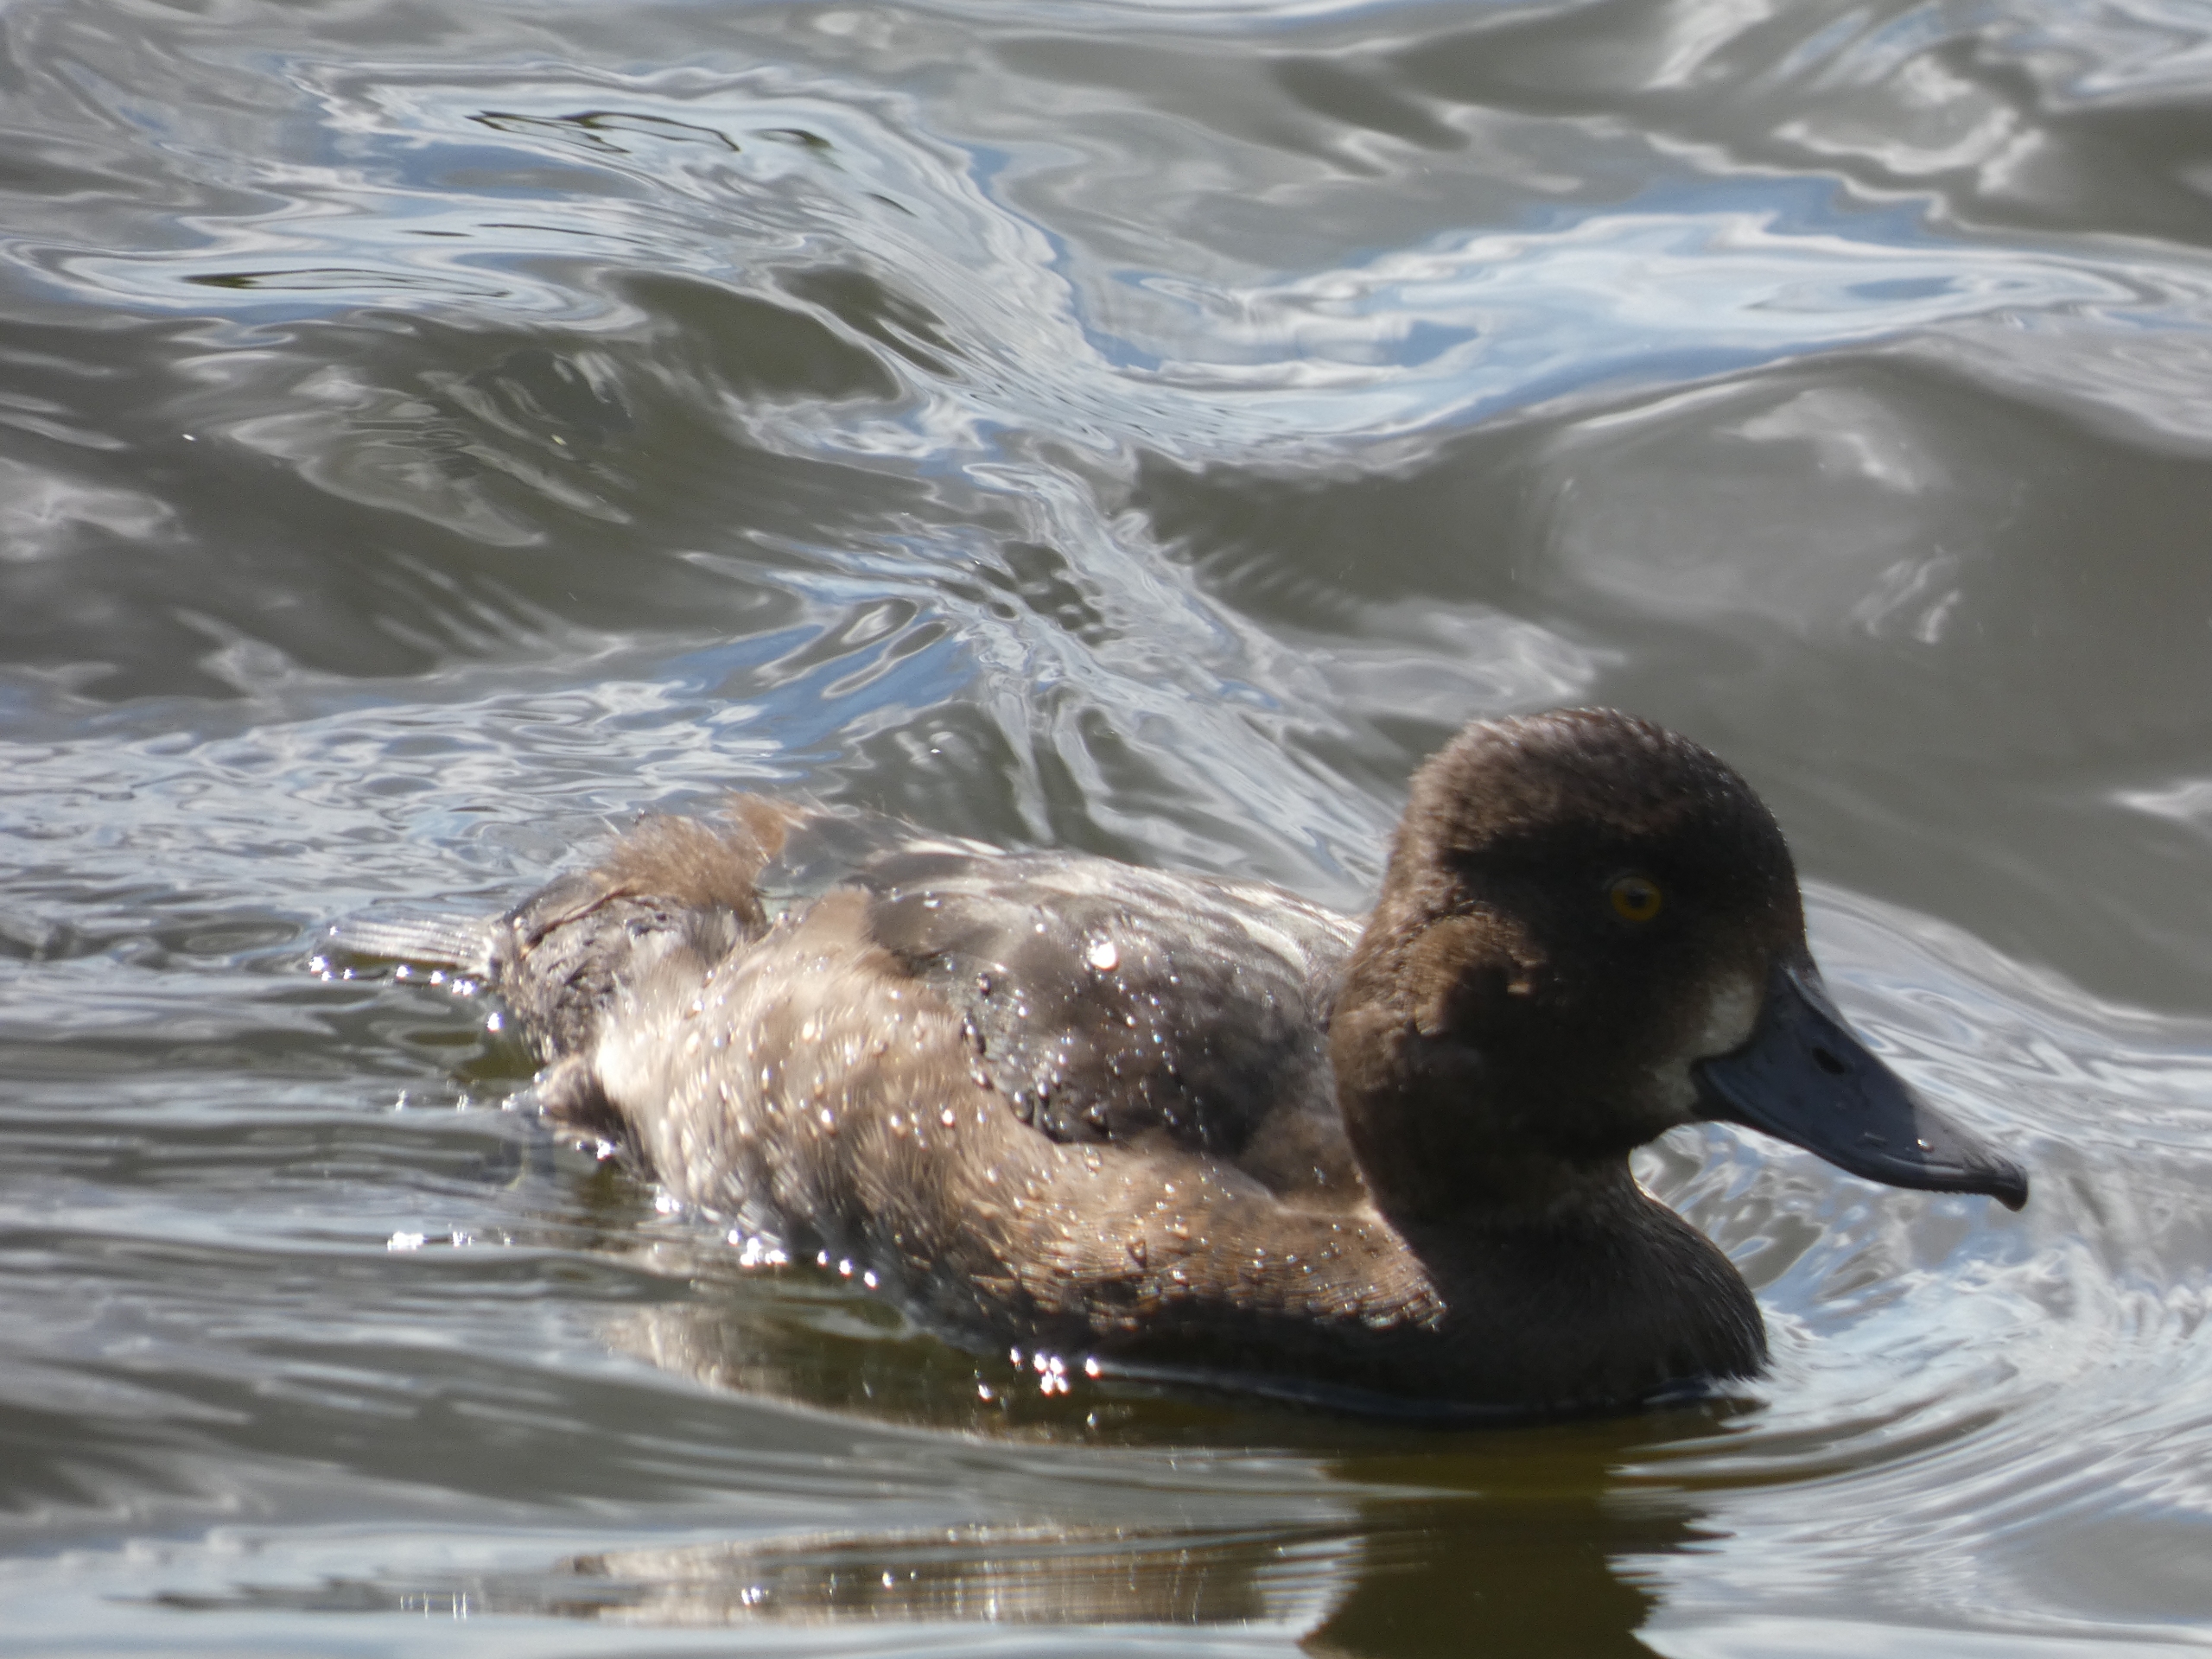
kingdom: Animalia
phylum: Chordata
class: Aves
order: Anseriformes
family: Anatidae
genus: Aythya
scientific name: Aythya fuligula
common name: Troldand
